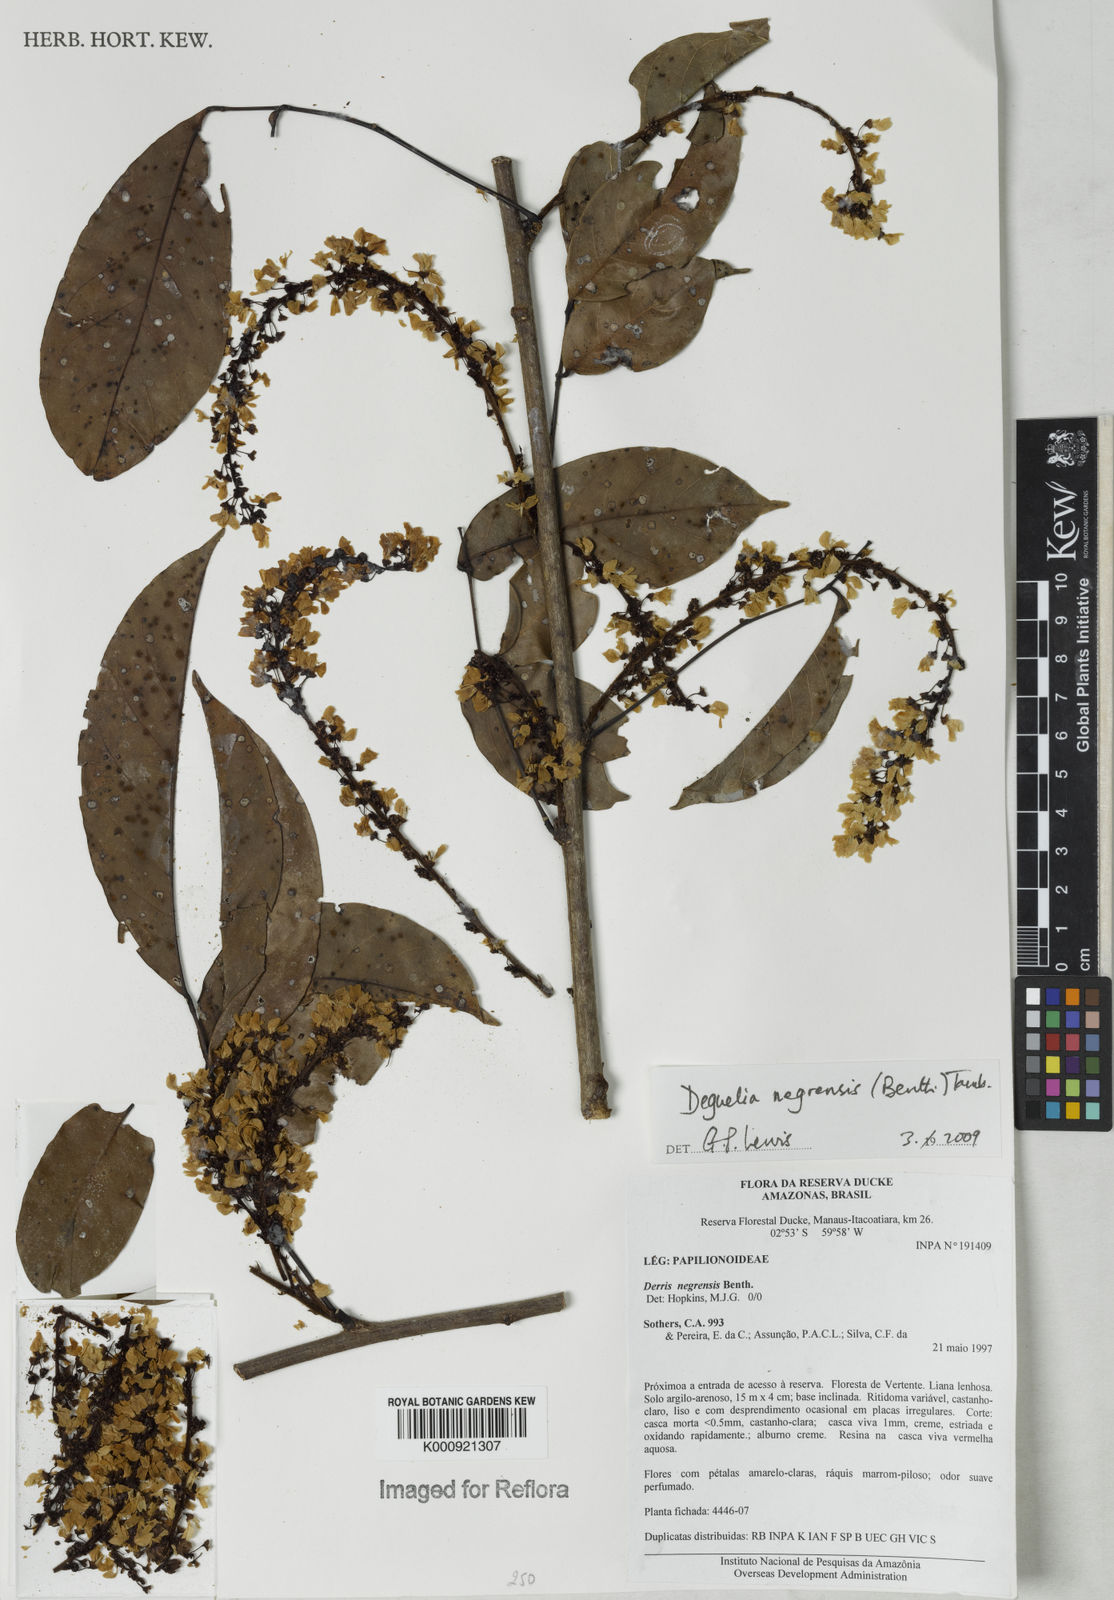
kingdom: Plantae
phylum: Tracheophyta
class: Magnoliopsida
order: Fabales
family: Fabaceae
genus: Deguelia
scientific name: Deguelia negrensis
